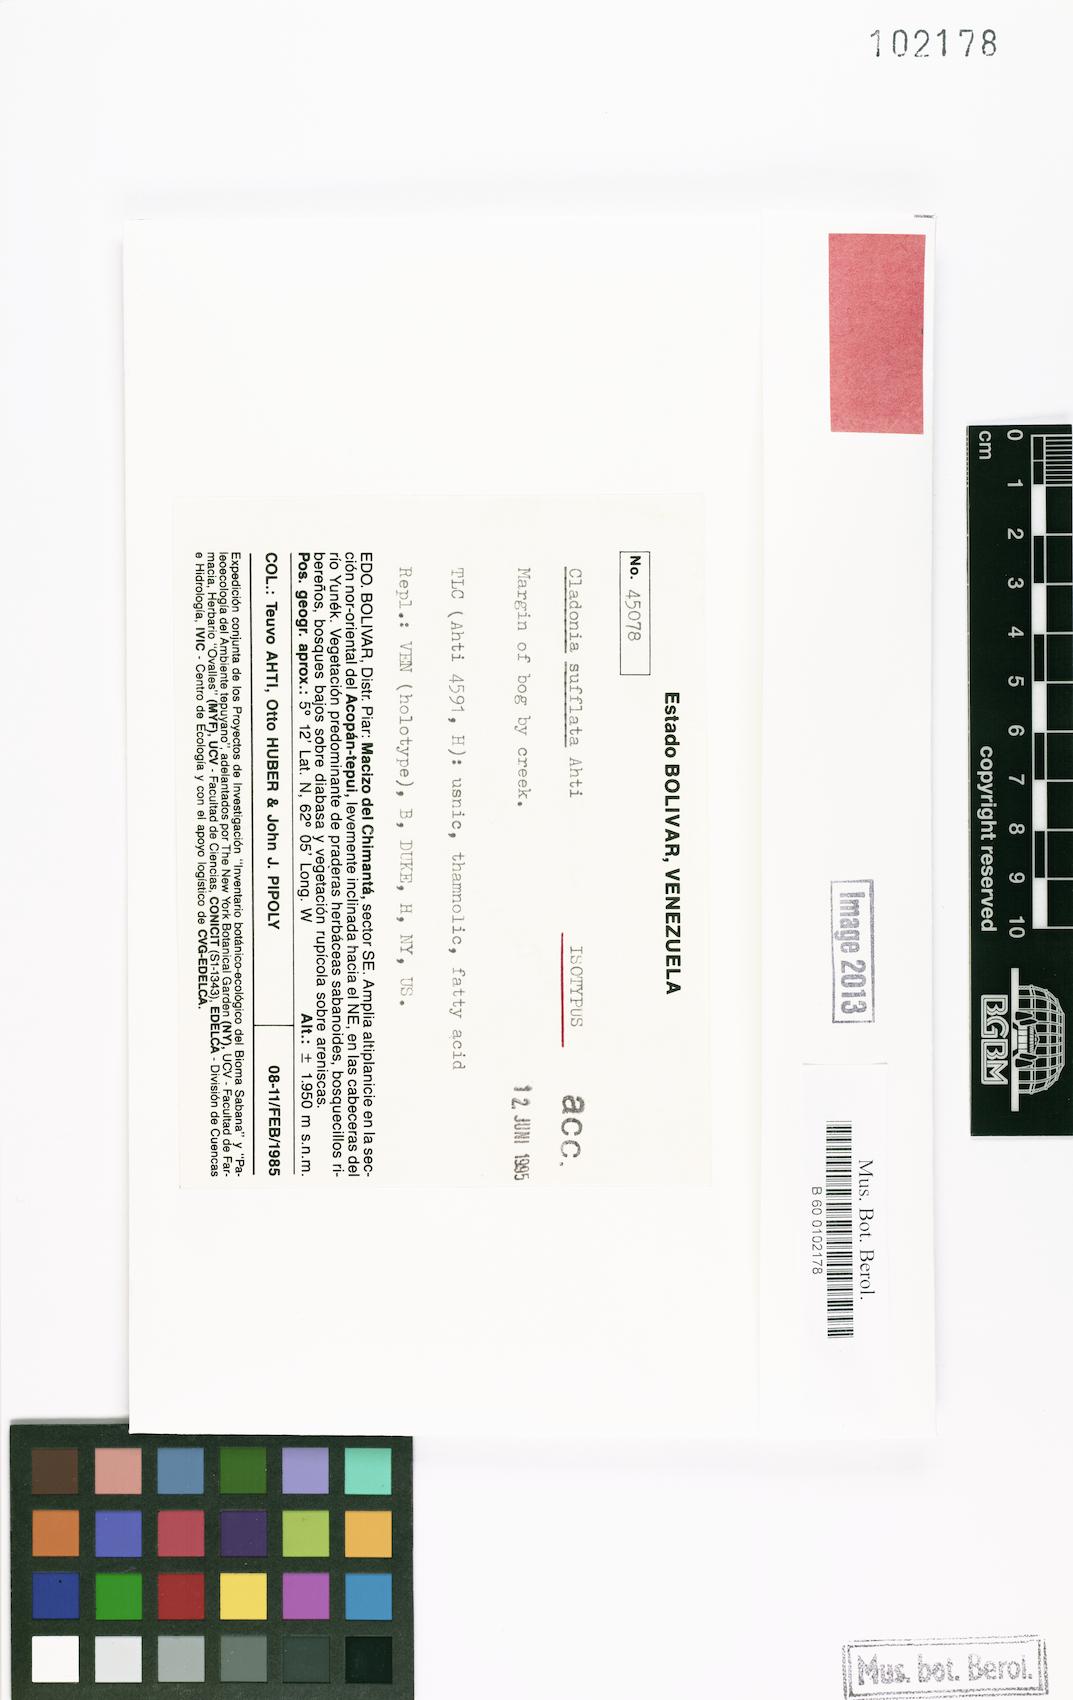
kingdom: Fungi
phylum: Ascomycota
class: Lecanoromycetes
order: Lecanorales
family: Cladoniaceae
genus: Cladonia
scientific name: Cladonia sufflata
